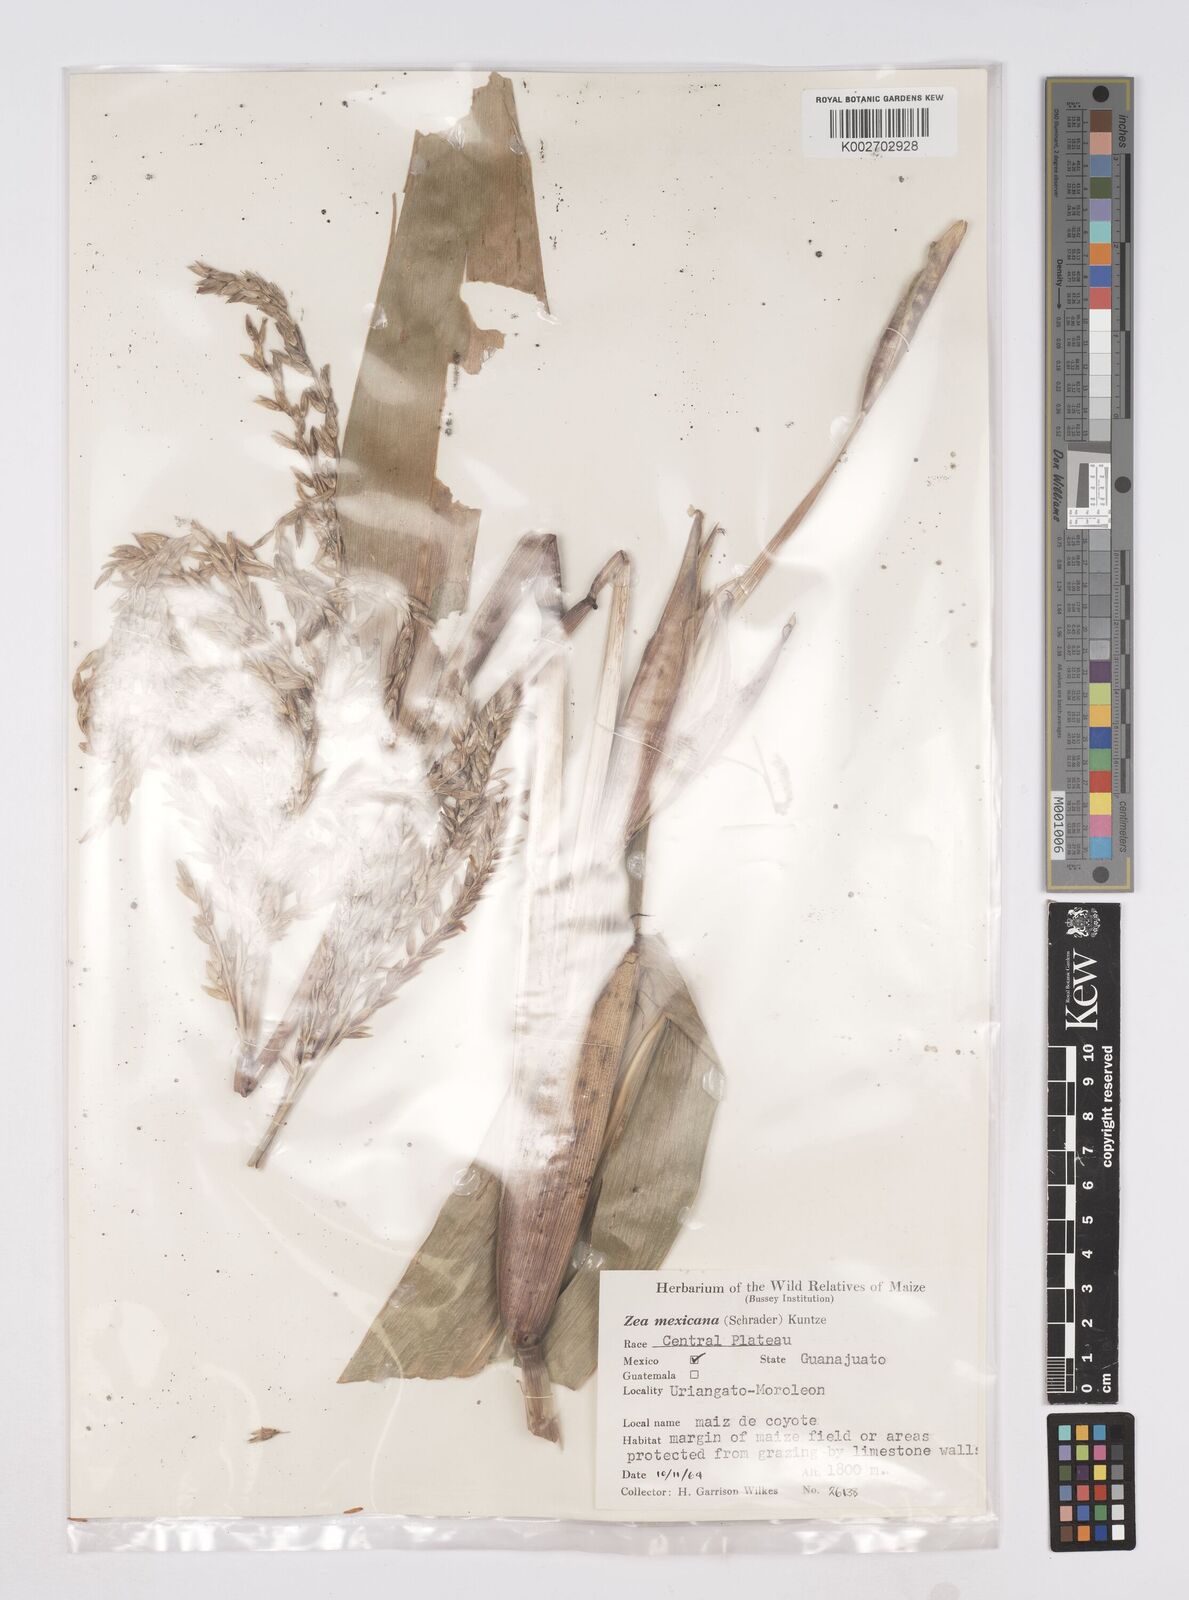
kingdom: Plantae
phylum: Tracheophyta
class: Liliopsida
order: Poales
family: Poaceae
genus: Zea
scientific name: Zea mexicana
